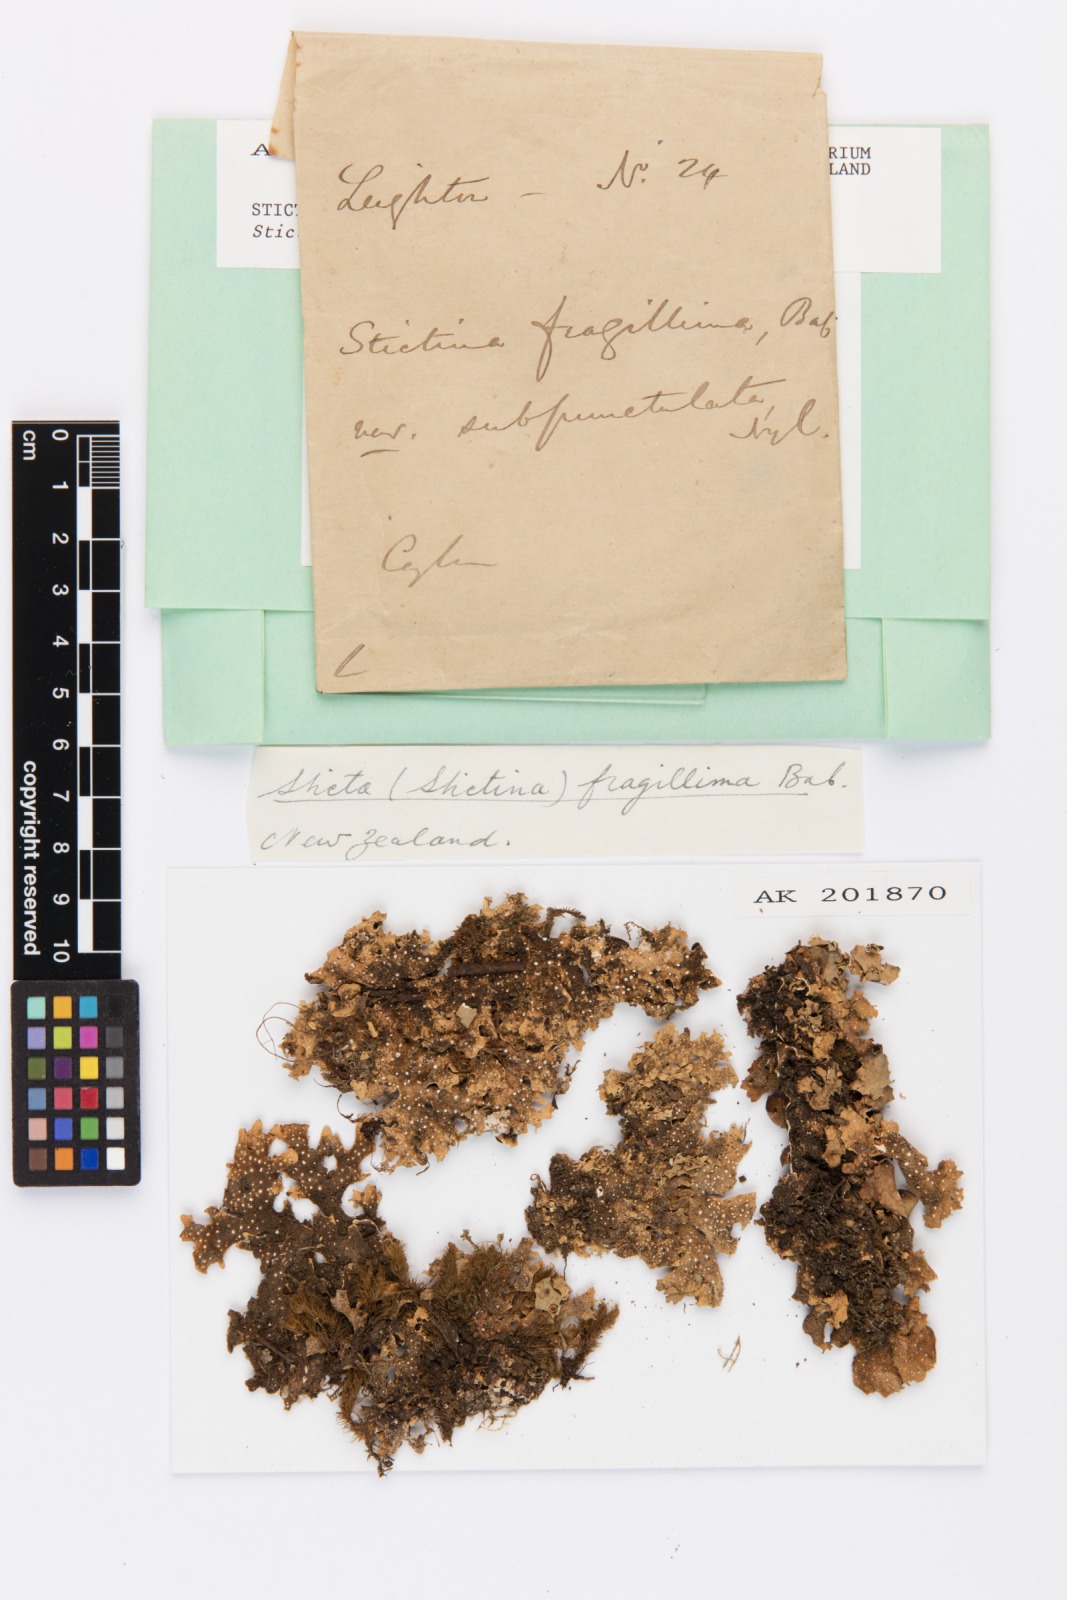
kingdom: Fungi
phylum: Ascomycota
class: Lecanoromycetes
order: Peltigerales
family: Lobariaceae
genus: Pseudocyphellaria
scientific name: Pseudocyphellaria cinnamomea
